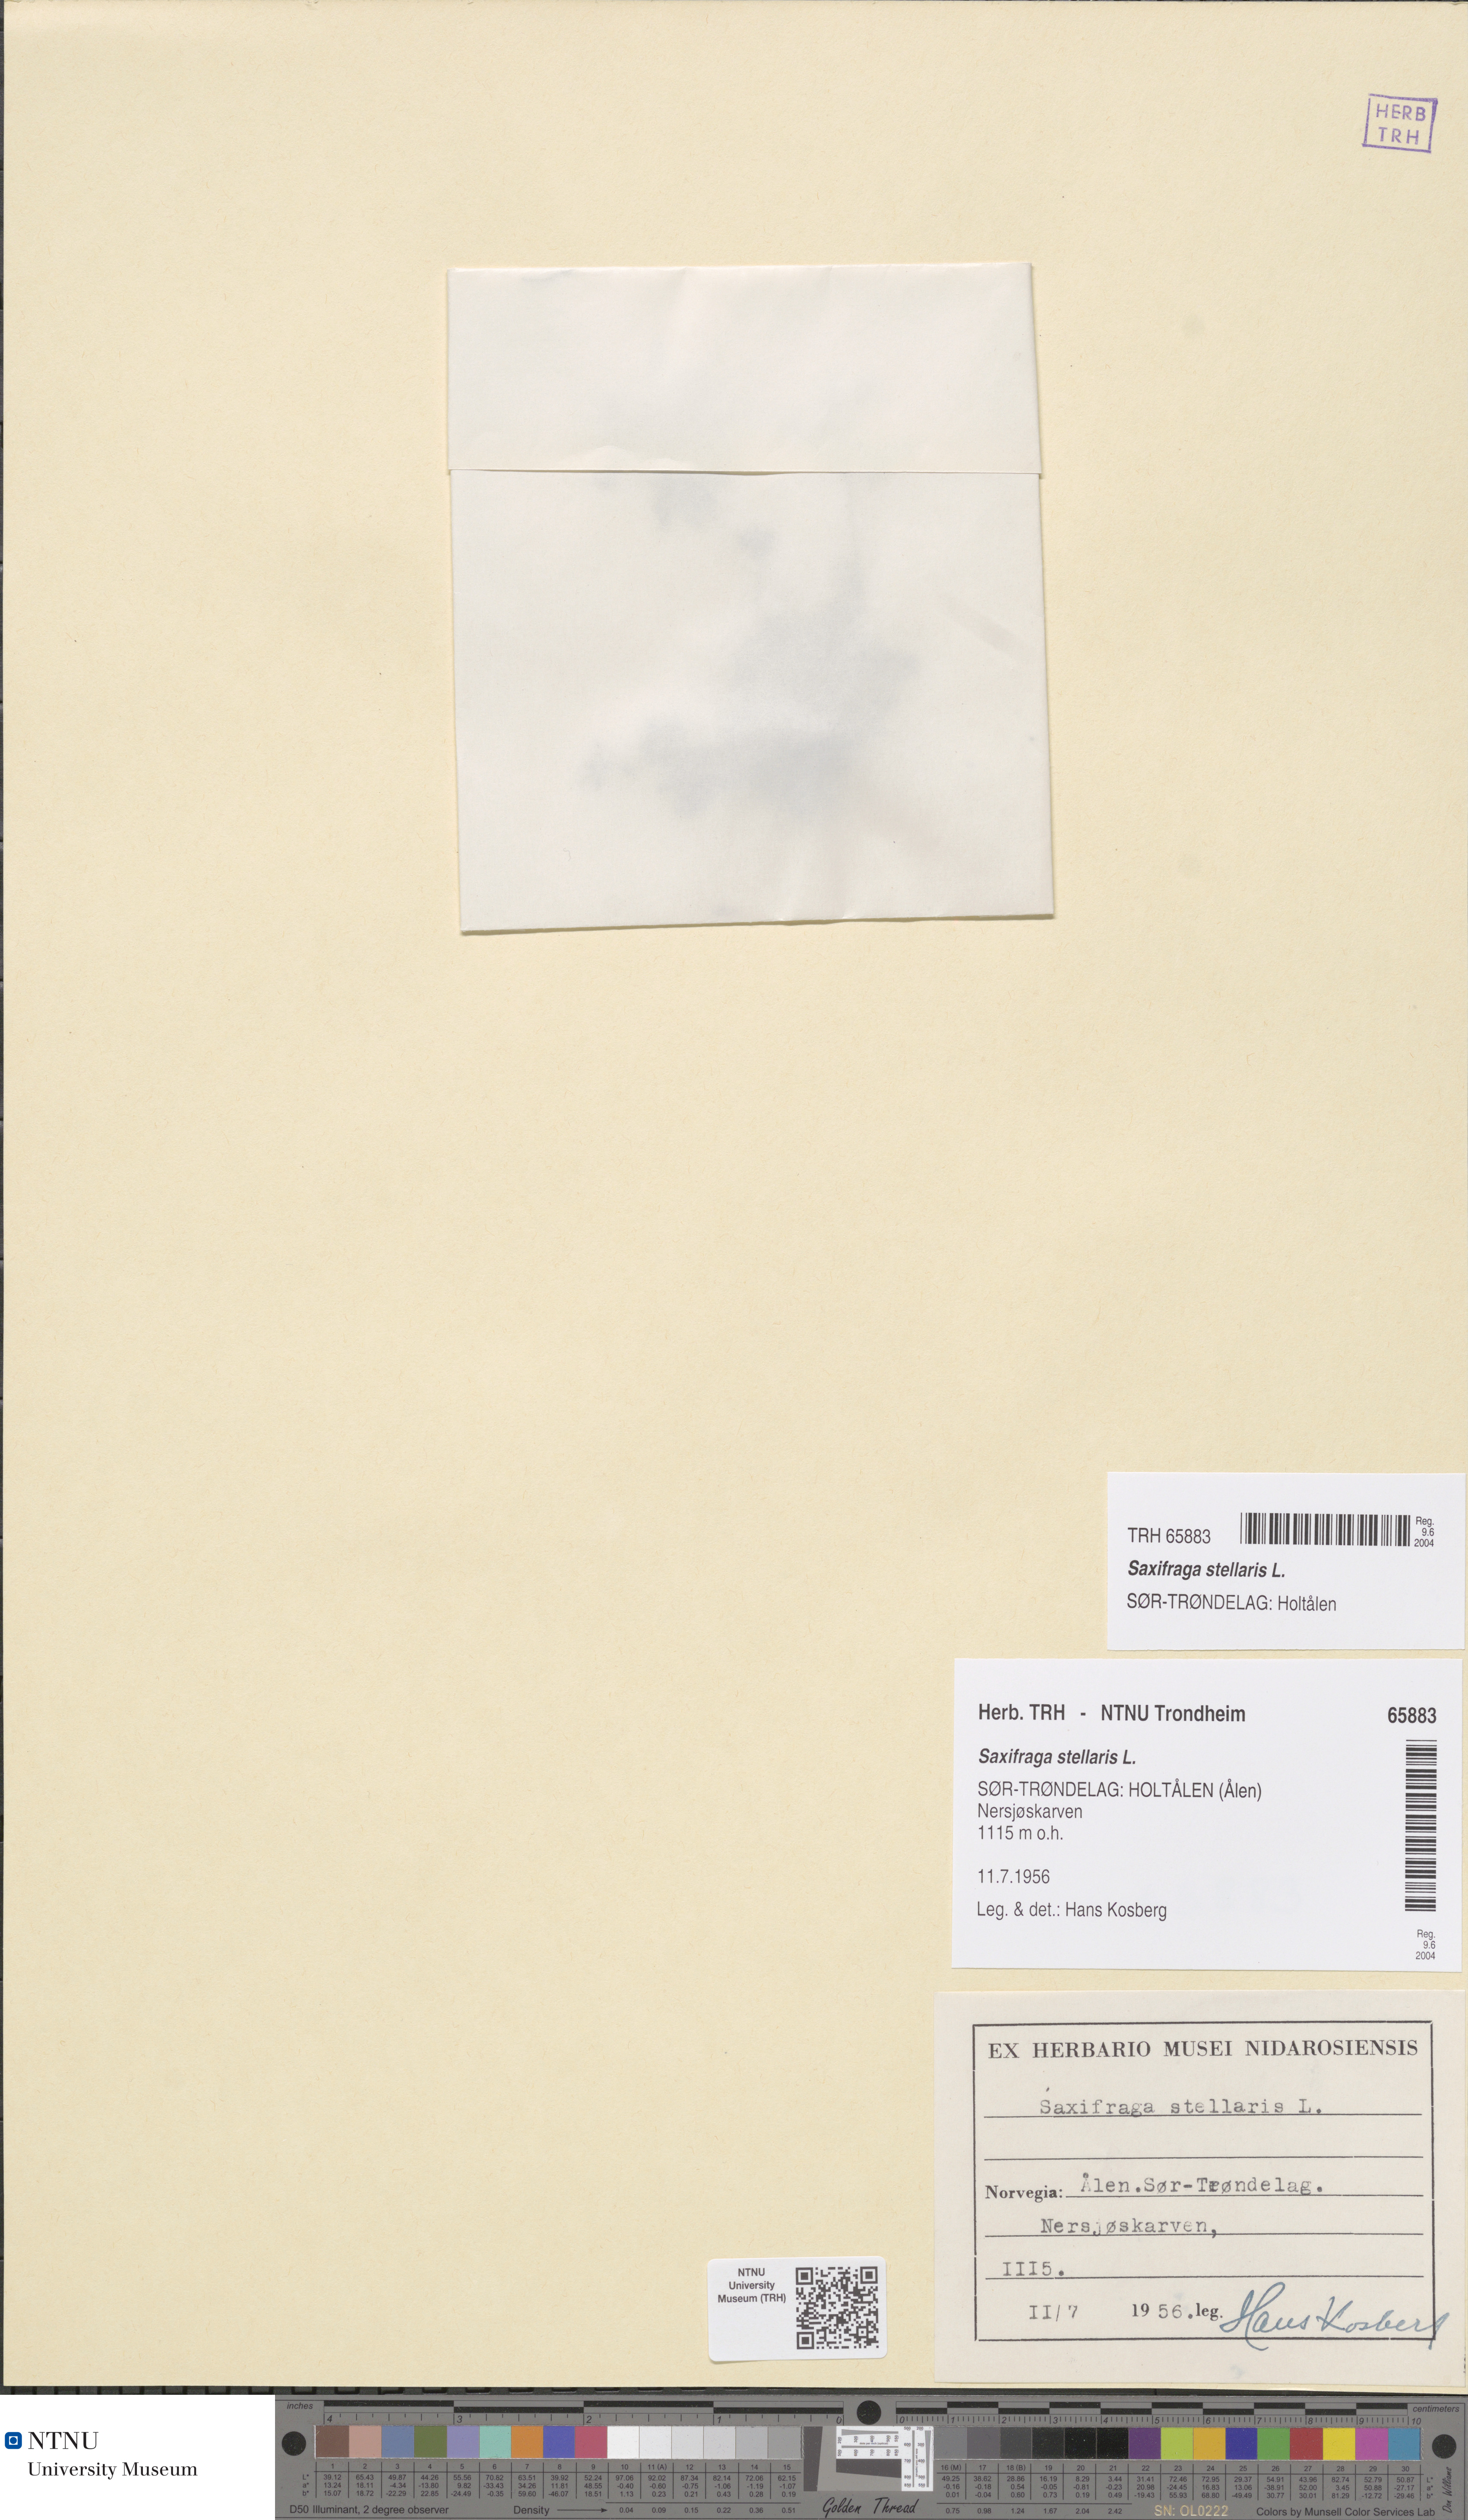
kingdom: Plantae
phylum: Tracheophyta
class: Magnoliopsida
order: Saxifragales
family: Saxifragaceae
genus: Micranthes
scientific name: Micranthes stellaris
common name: Starry saxifrage
